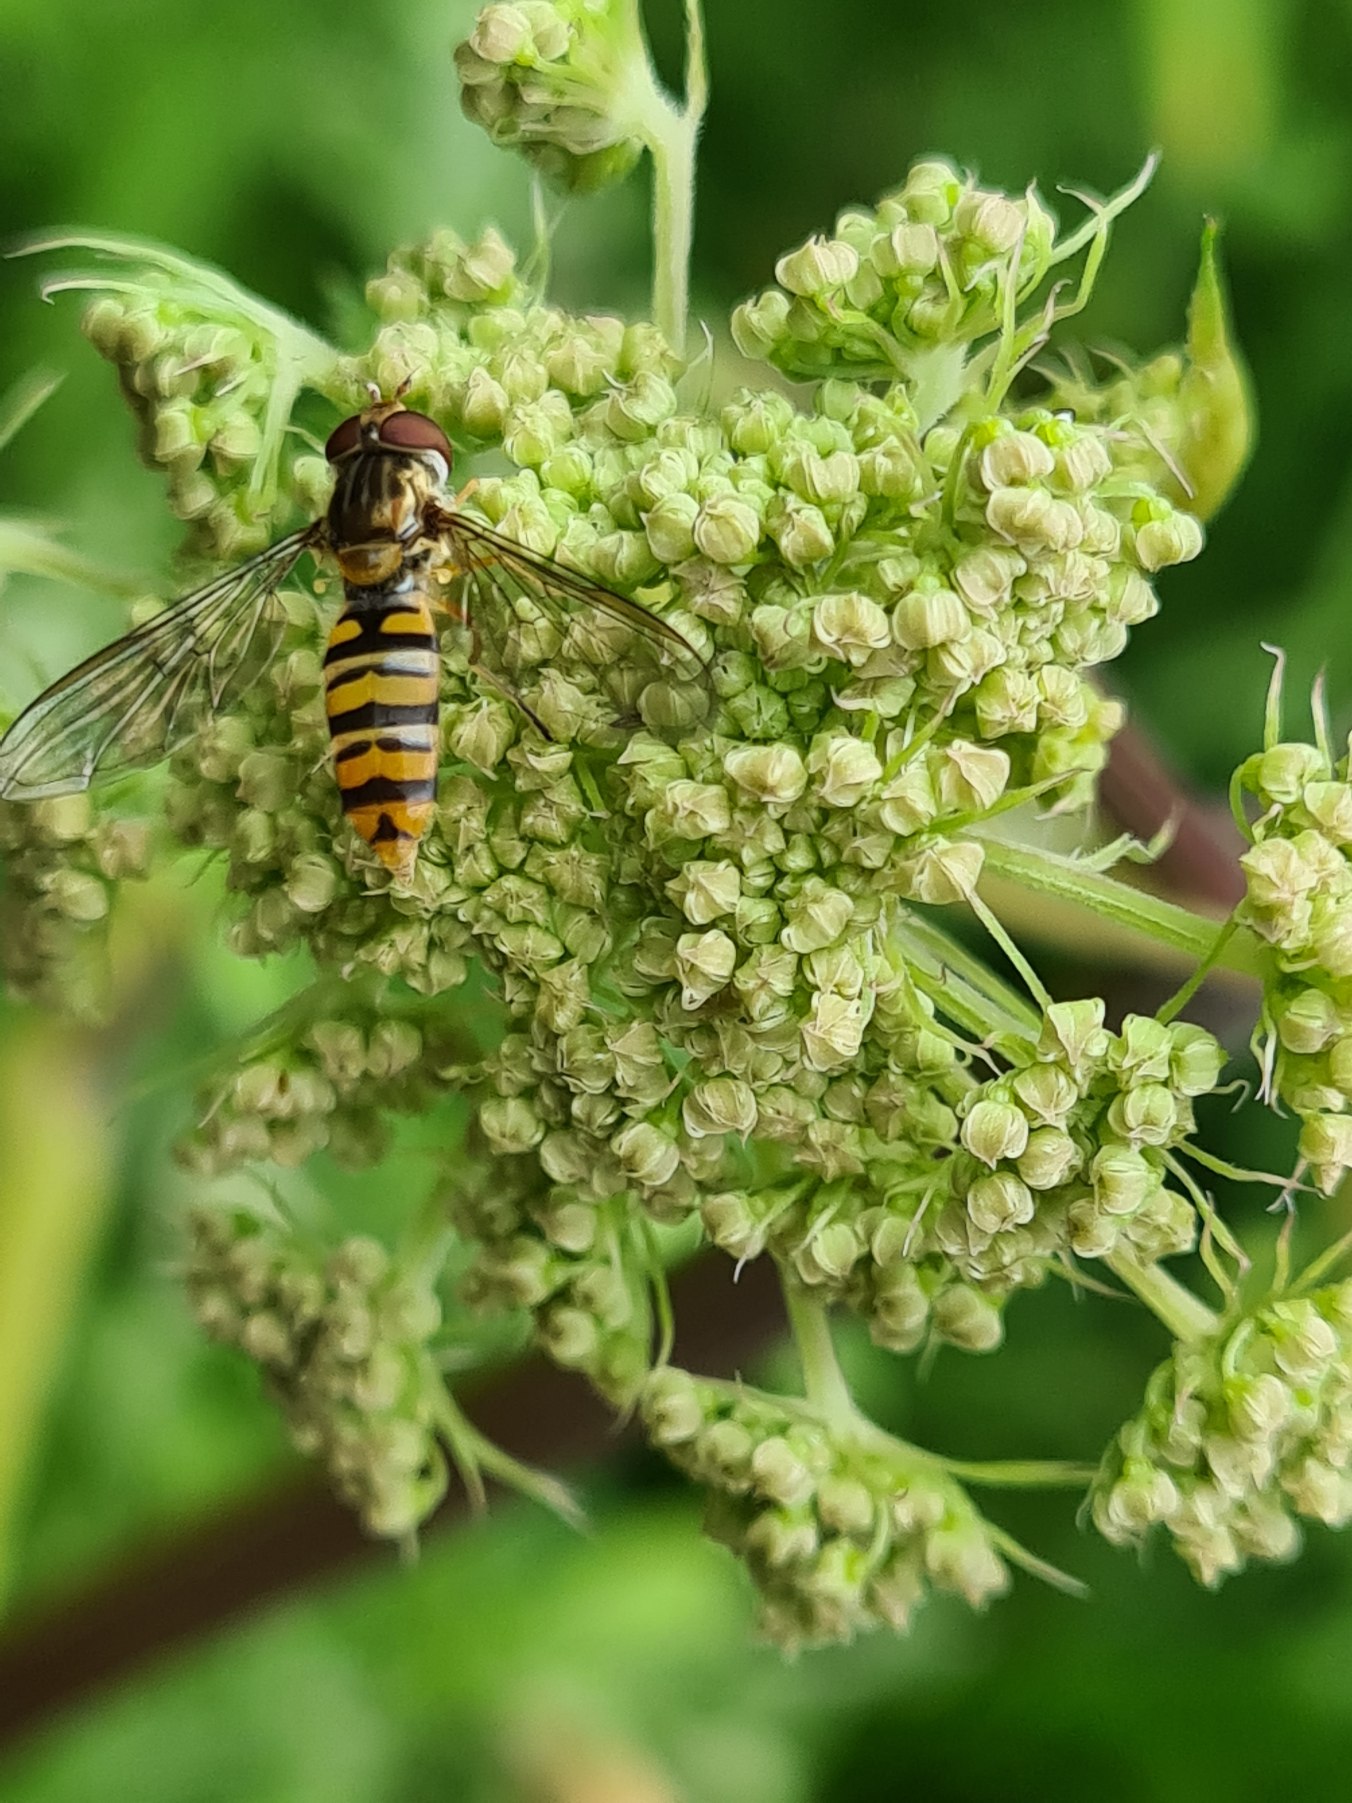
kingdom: Animalia
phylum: Arthropoda
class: Insecta
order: Diptera
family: Syrphidae
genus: Episyrphus
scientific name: Episyrphus balteatus
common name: Dobbeltbåndet svirreflue
